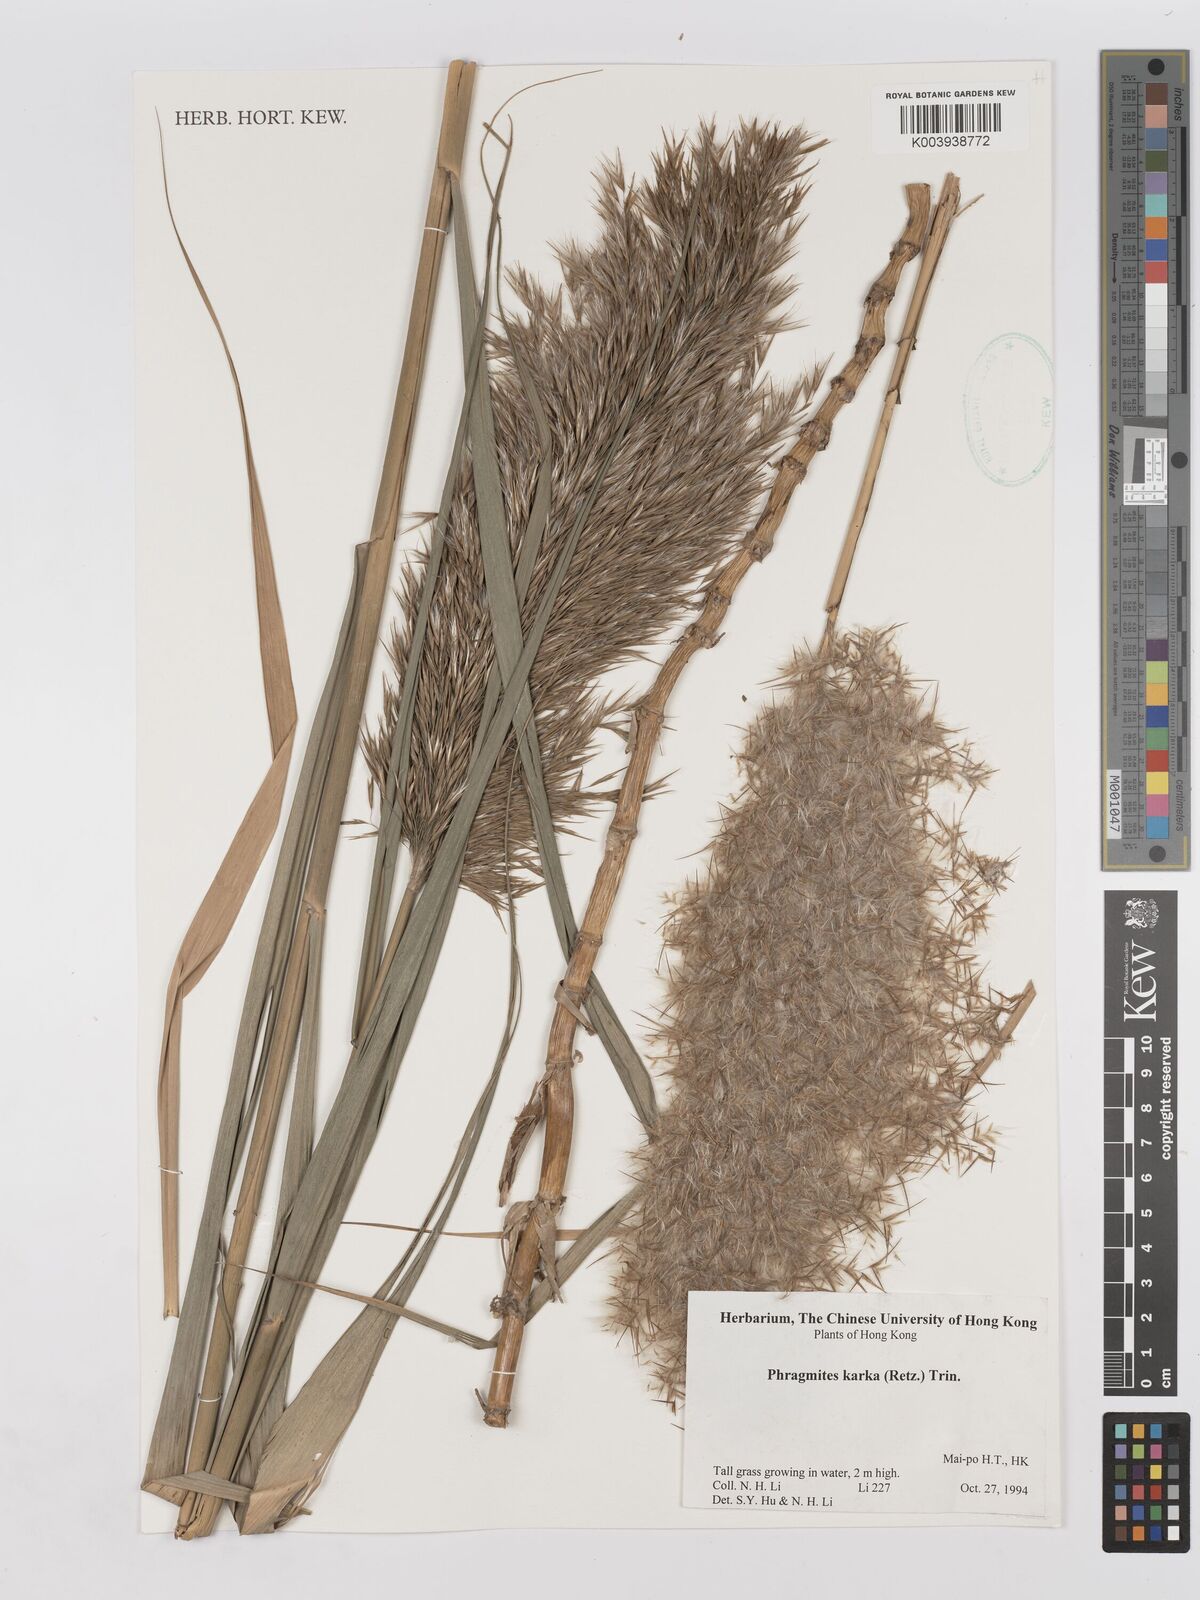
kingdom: Plantae
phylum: Tracheophyta
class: Liliopsida
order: Poales
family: Poaceae
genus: Phragmites
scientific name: Phragmites karka
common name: Tropical reed
